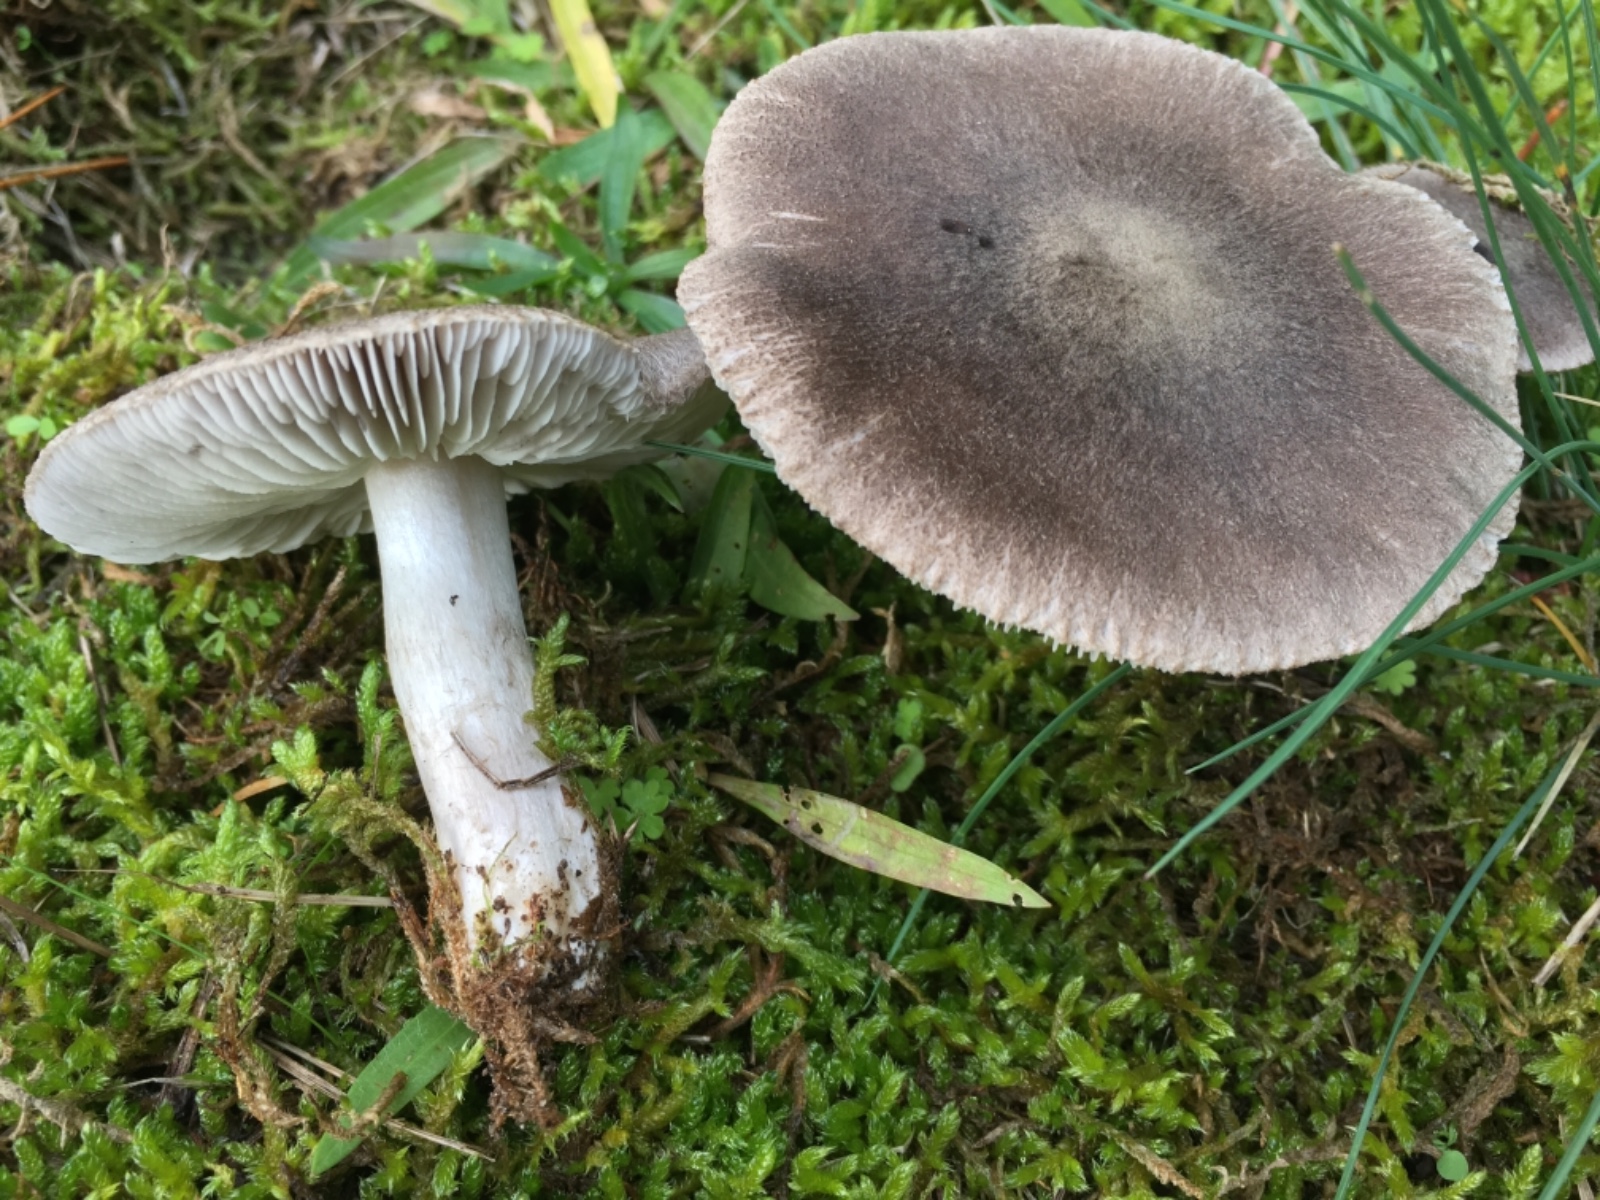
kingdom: Fungi
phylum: Basidiomycota
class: Agaricomycetes
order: Agaricales
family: Tricholomataceae
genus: Tricholoma
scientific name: Tricholoma terreum
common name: jordfarvet ridderhat
